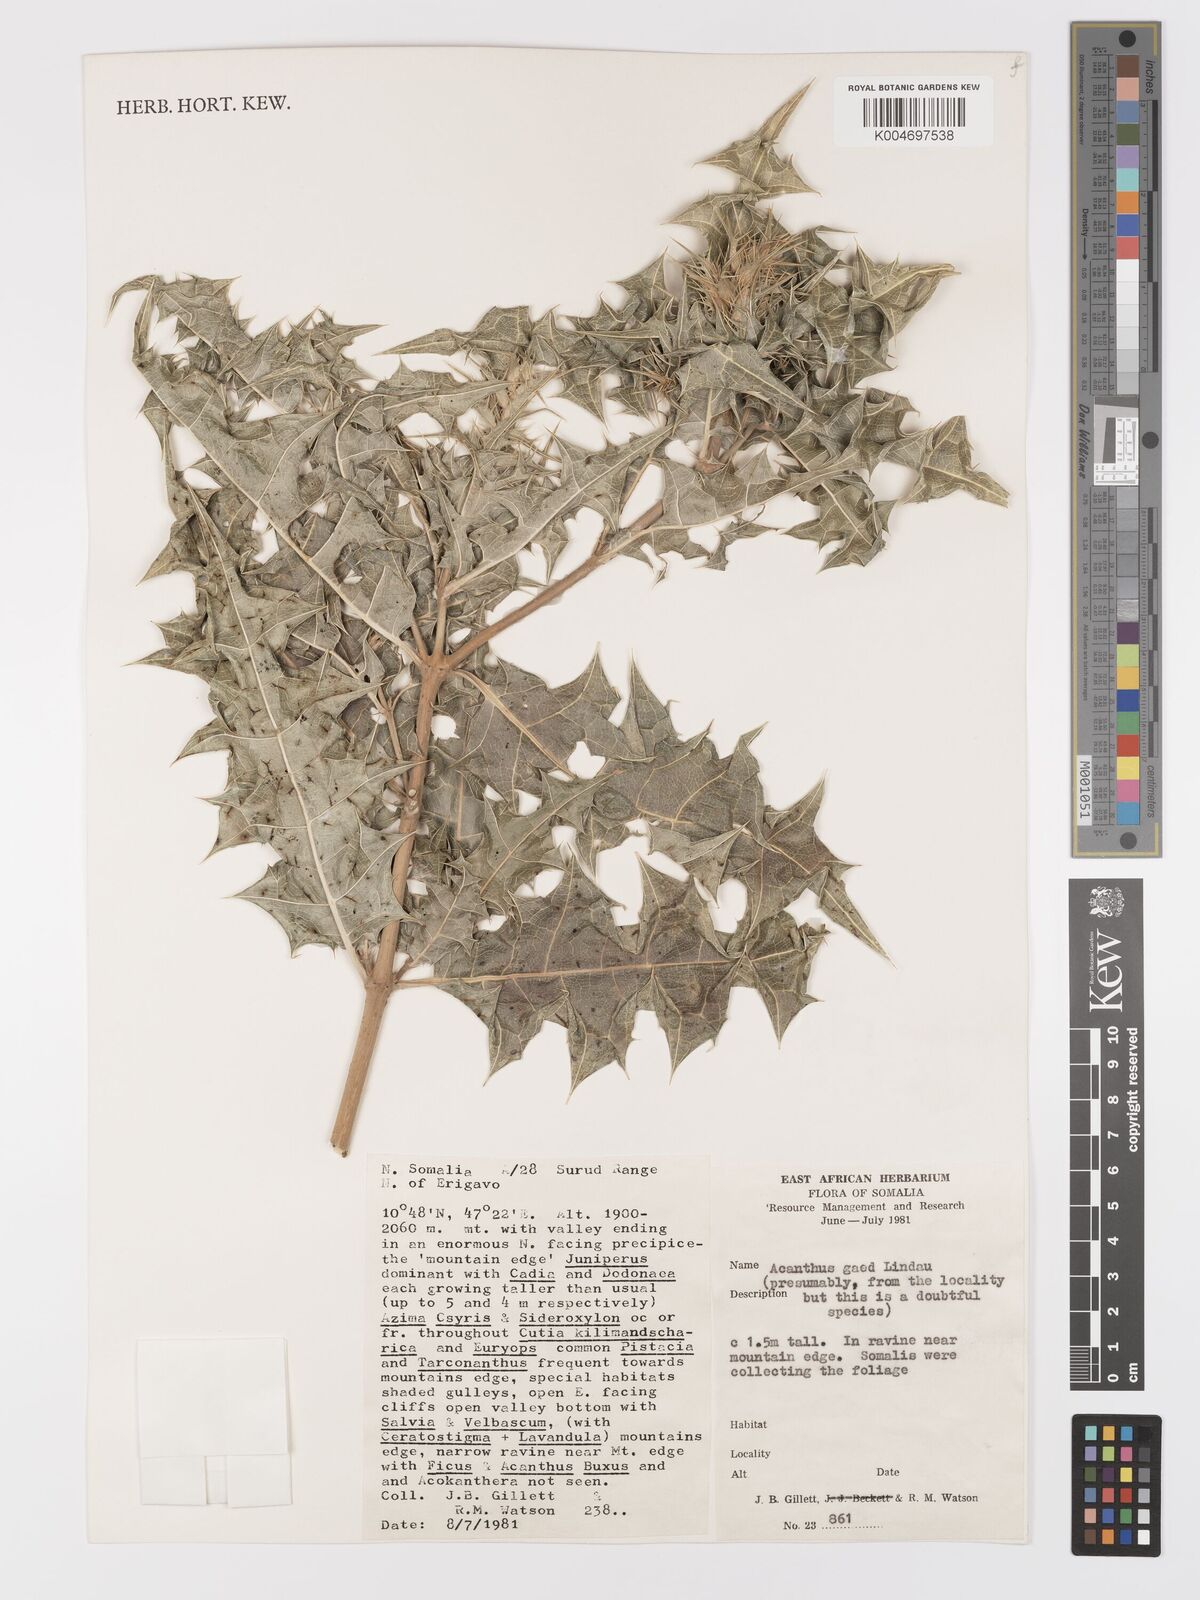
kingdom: Plantae
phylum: Tracheophyta
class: Magnoliopsida
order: Lamiales
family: Acanthaceae
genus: Acanthus
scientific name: Acanthus gaed
